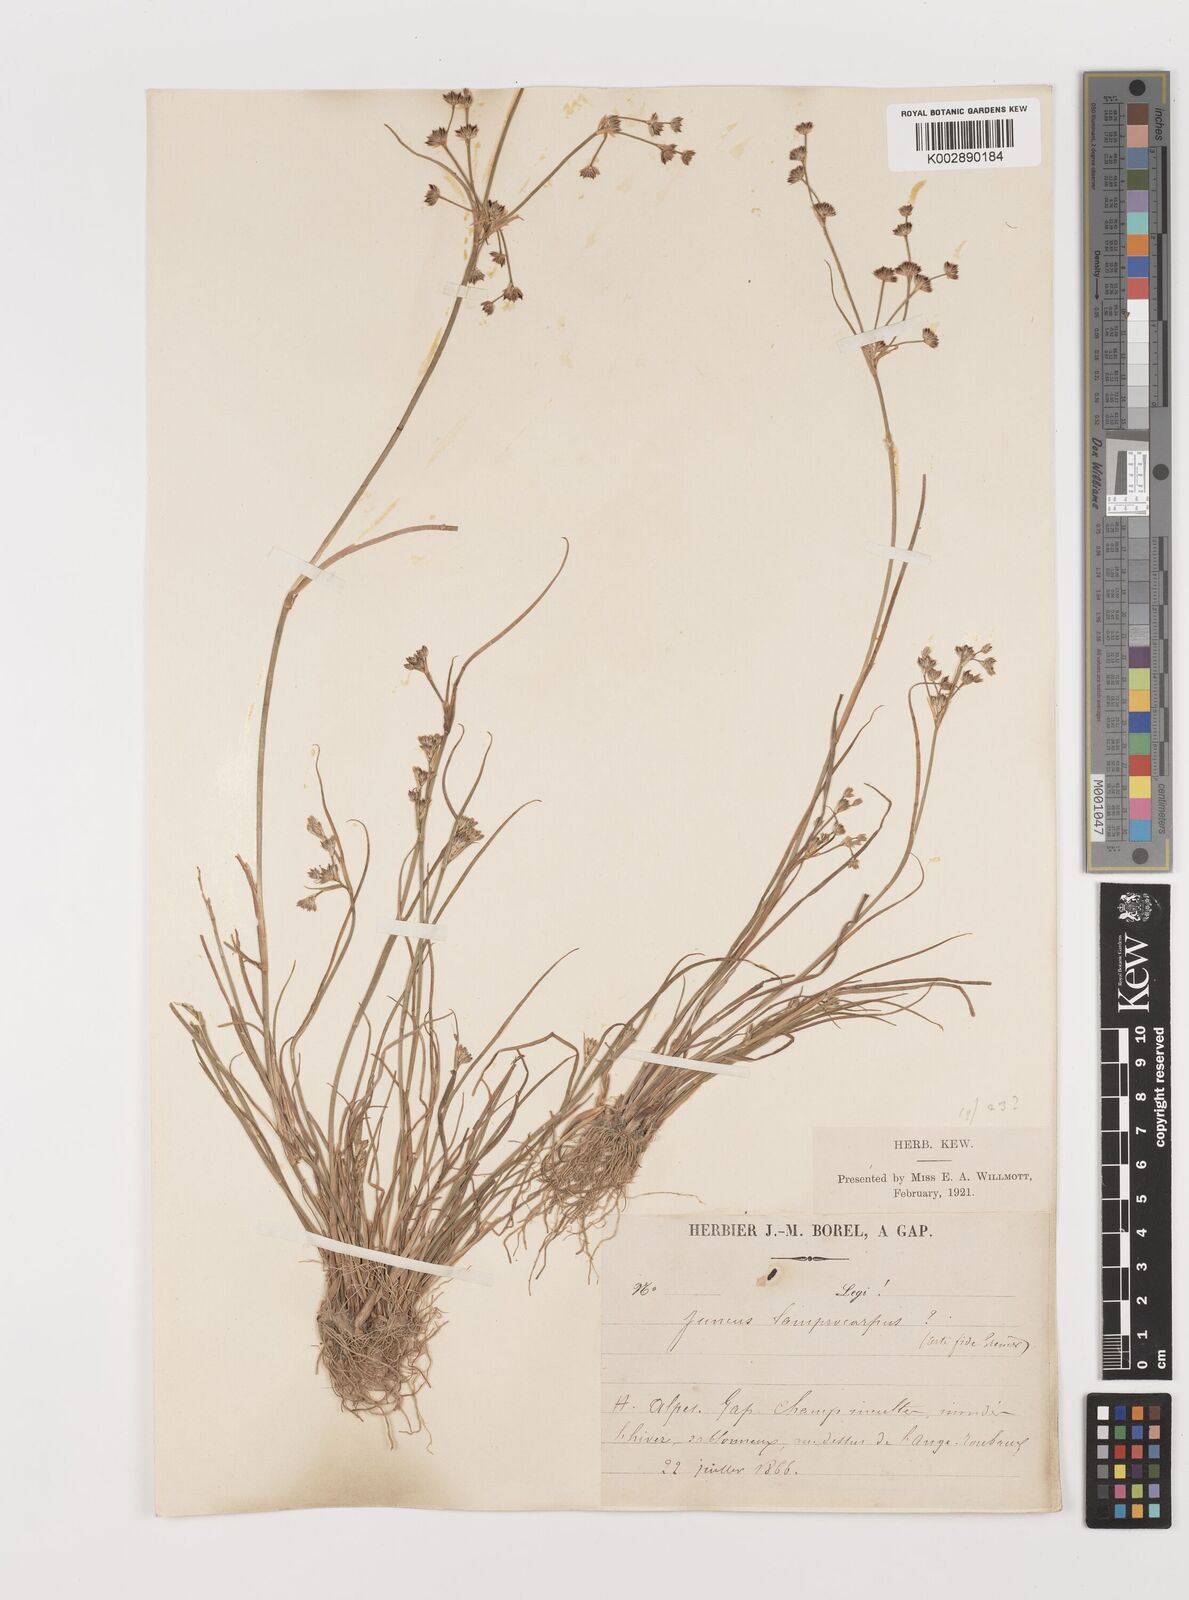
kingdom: Plantae
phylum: Tracheophyta
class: Liliopsida
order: Poales
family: Juncaceae
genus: Juncus
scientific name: Juncus articulatus
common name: Jointed rush
